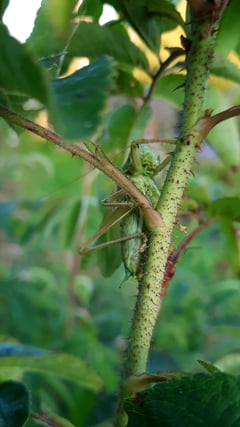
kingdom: Animalia
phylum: Arthropoda
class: Insecta
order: Orthoptera
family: Tettigoniidae
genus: Tettigonia
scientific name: Tettigonia cantans
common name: Upland green bush-cricket
